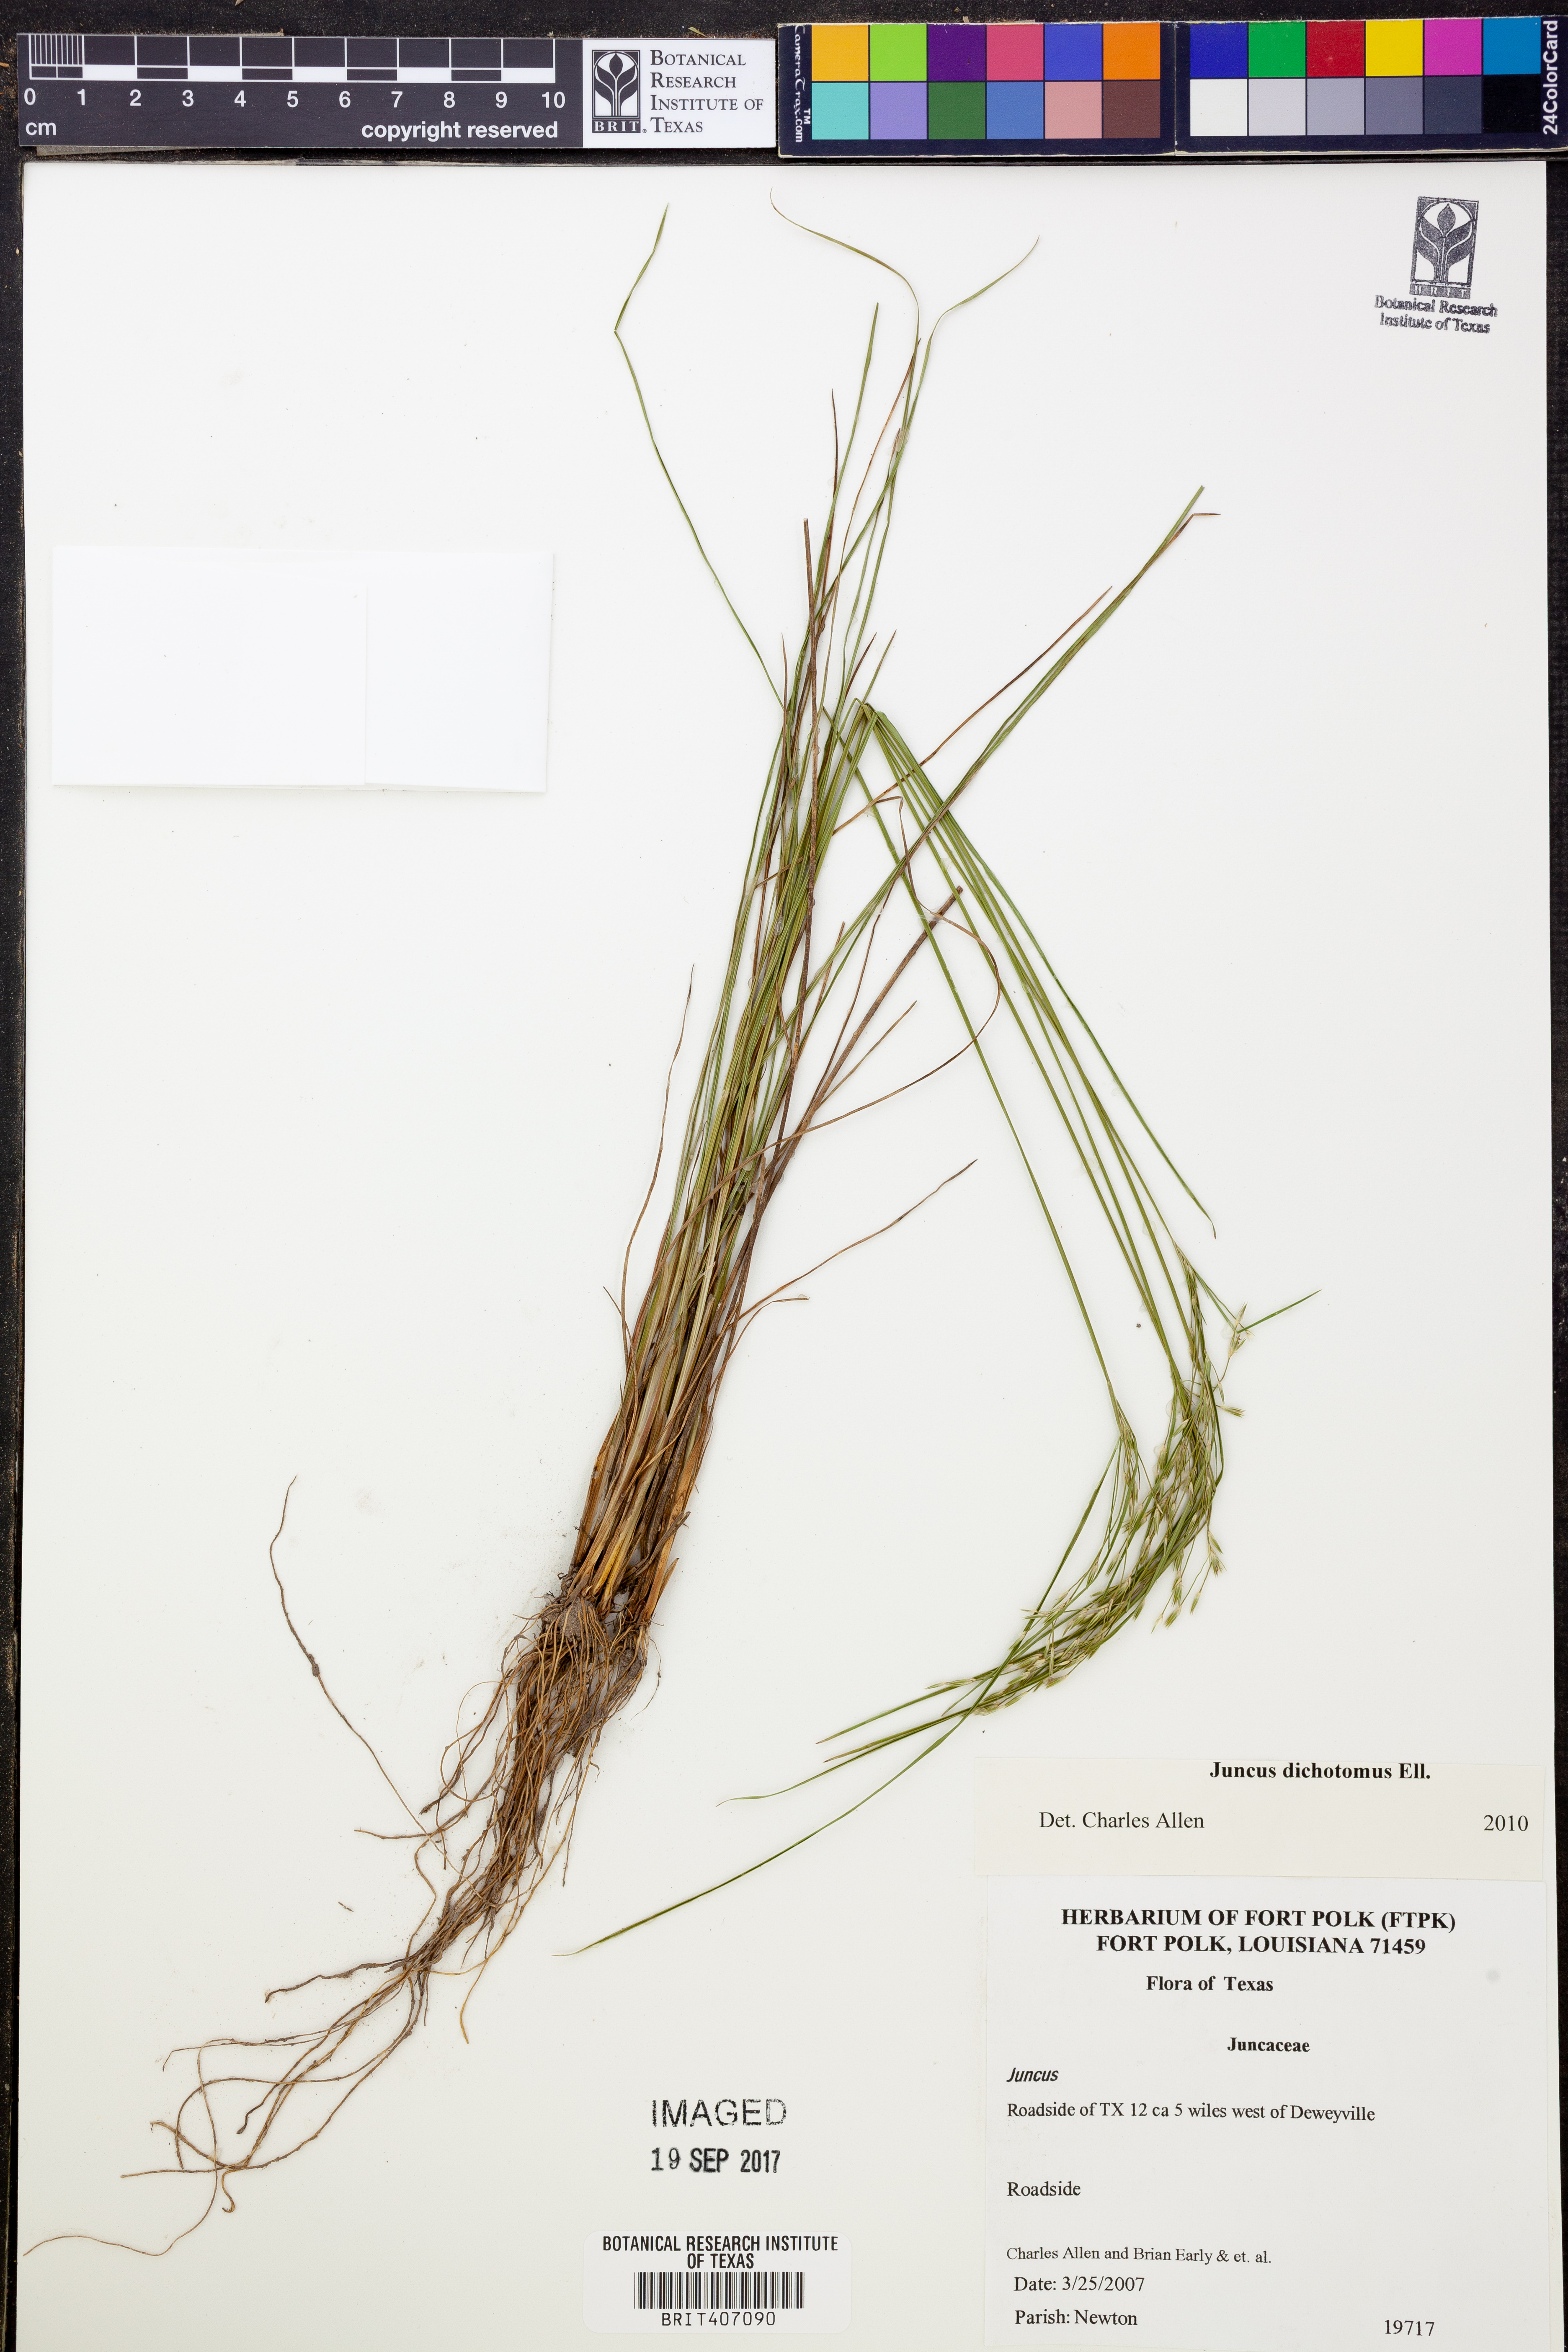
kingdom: Plantae
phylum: Tracheophyta
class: Liliopsida
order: Poales
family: Juncaceae
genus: Juncus
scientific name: Juncus dichotomus
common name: Forked rush
